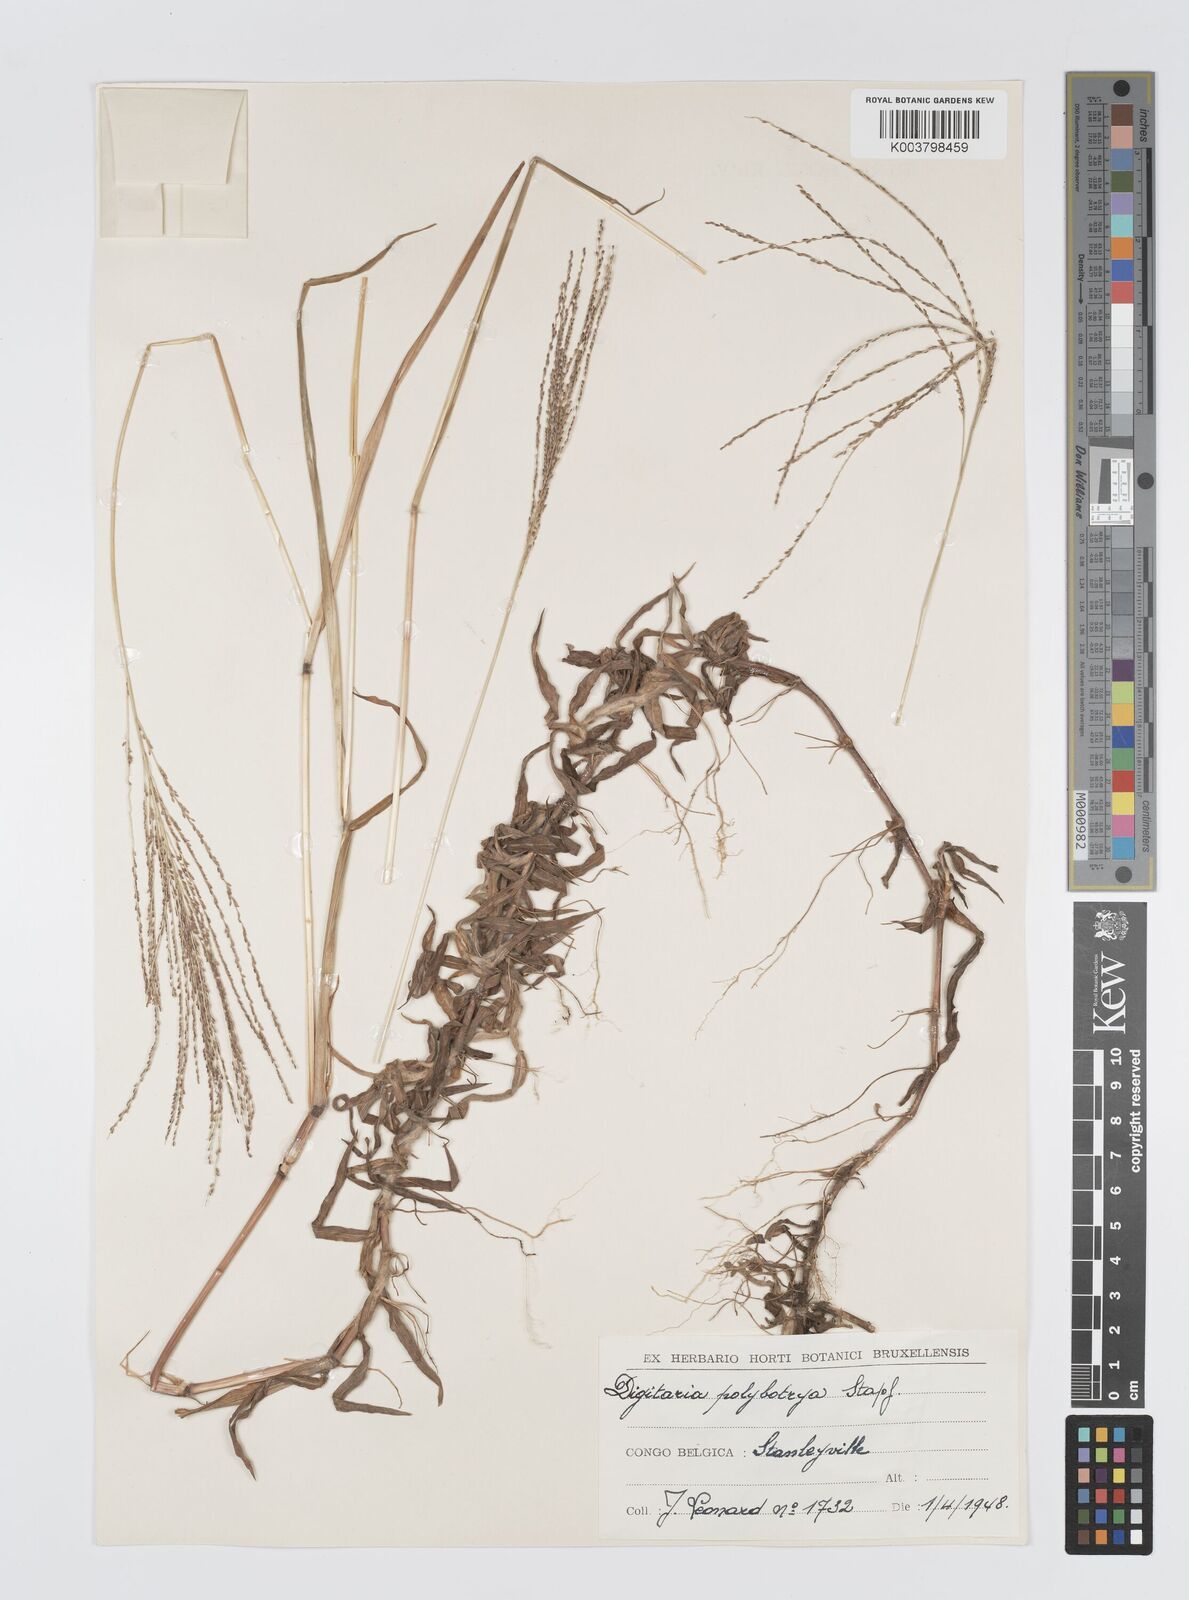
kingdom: Plantae
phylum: Tracheophyta
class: Liliopsida
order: Poales
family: Poaceae
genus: Digitaria
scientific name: Digitaria leptorhachis
